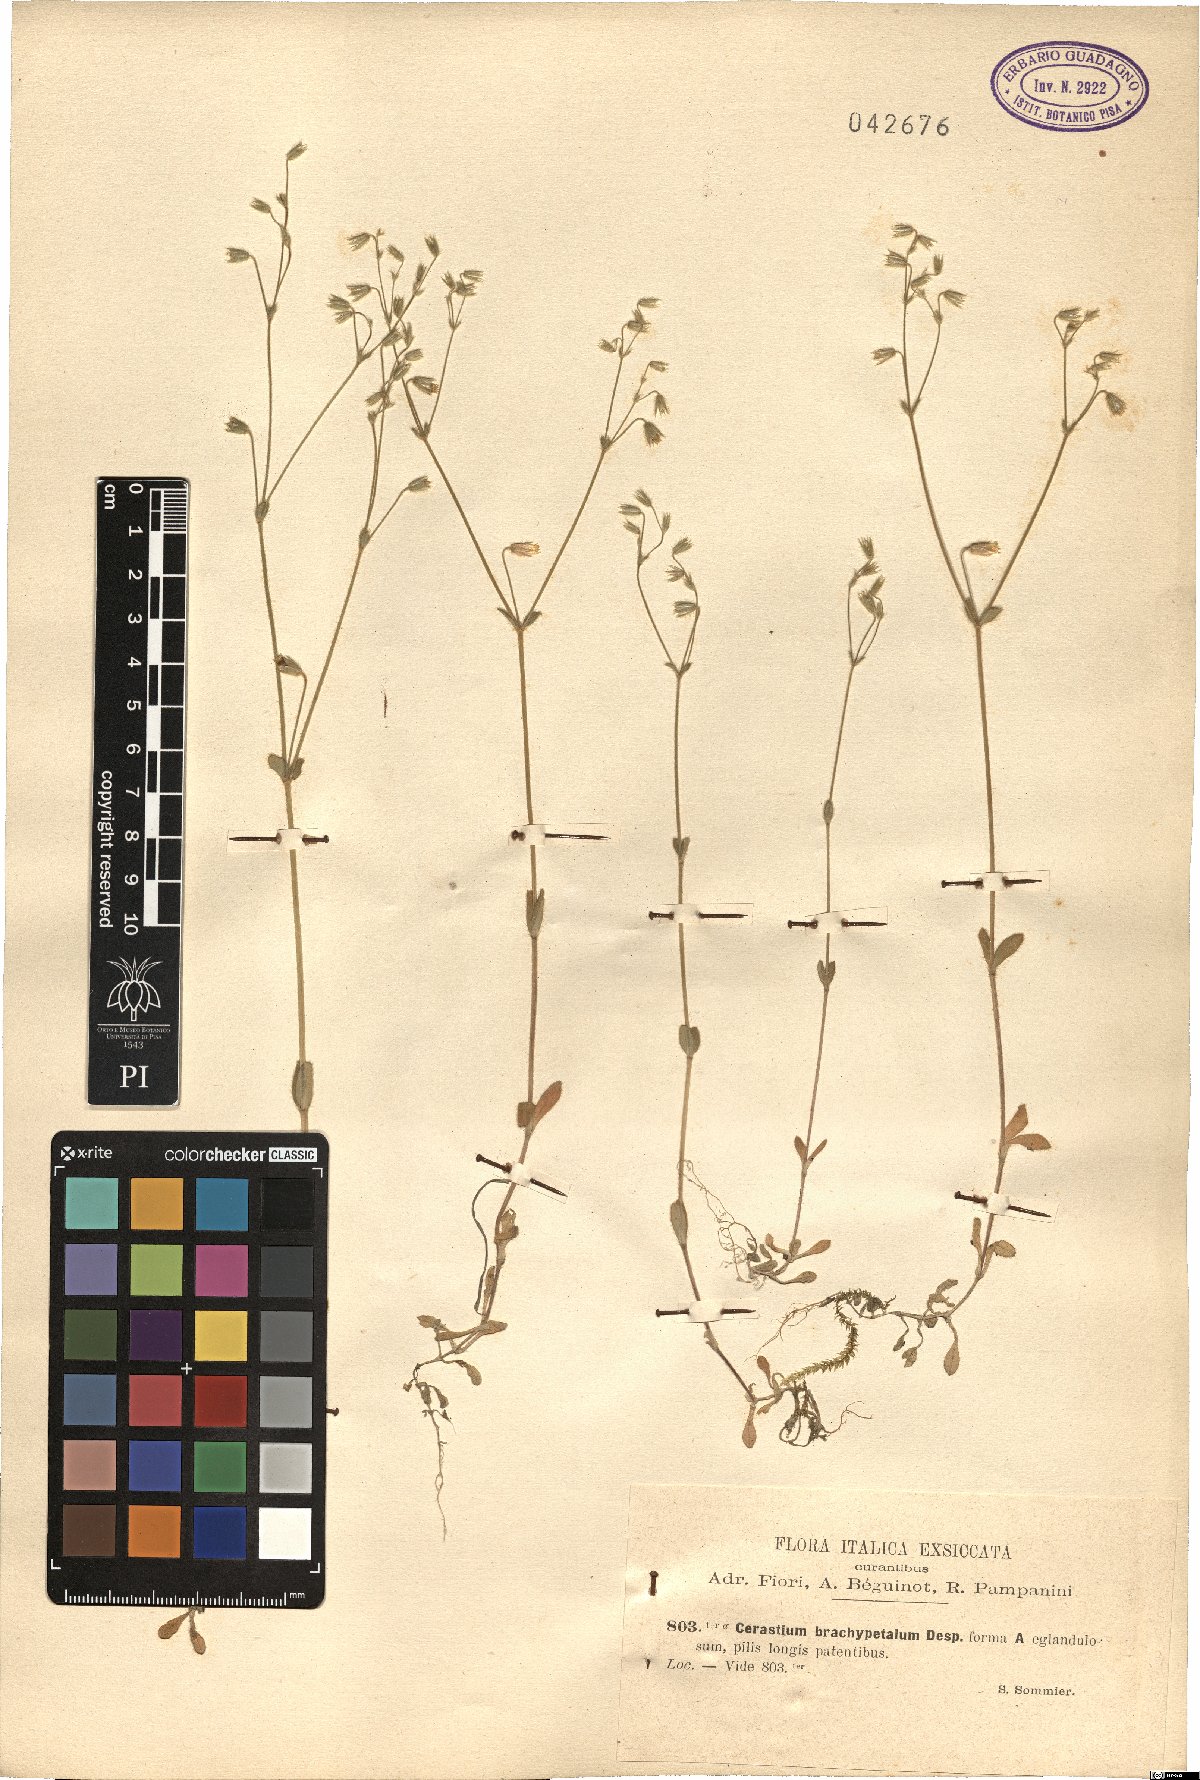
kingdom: Plantae
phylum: Tracheophyta
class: Magnoliopsida
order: Caryophyllales
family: Caryophyllaceae
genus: Cerastium
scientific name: Cerastium brachypetalum
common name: Grey mouse-ear
